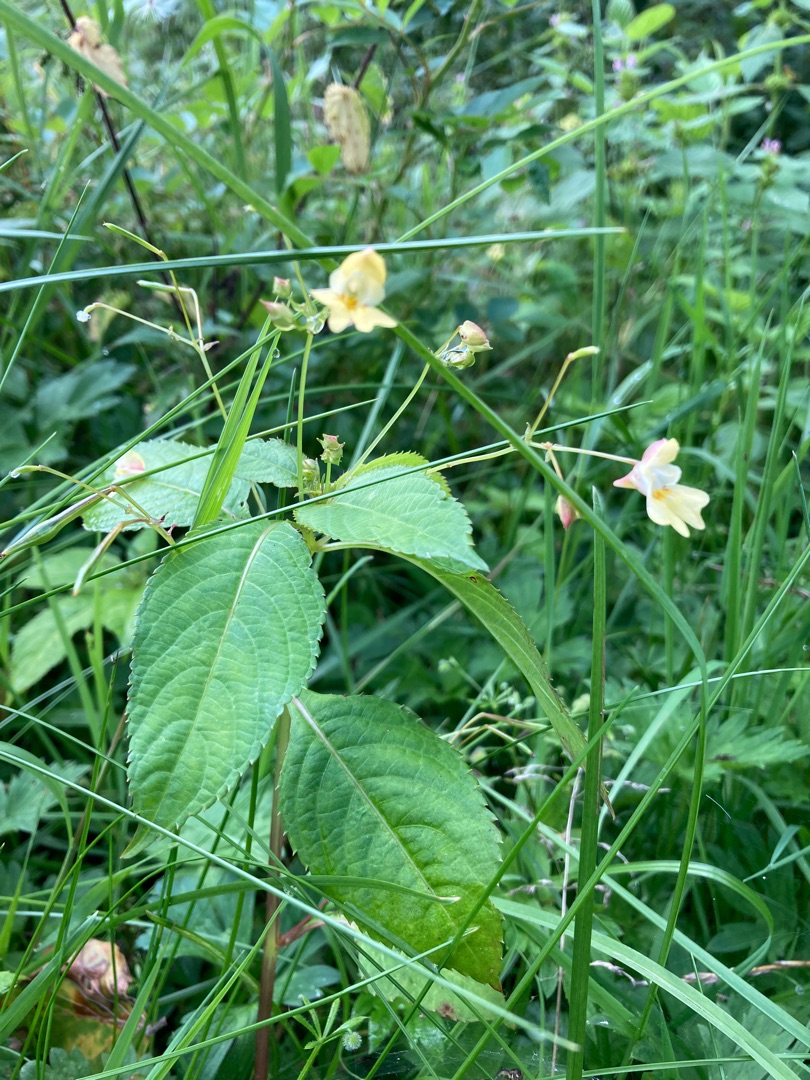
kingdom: Plantae
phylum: Tracheophyta
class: Magnoliopsida
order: Ericales
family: Balsaminaceae
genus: Impatiens
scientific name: Impatiens parviflora
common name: Småblomstret balsamin
